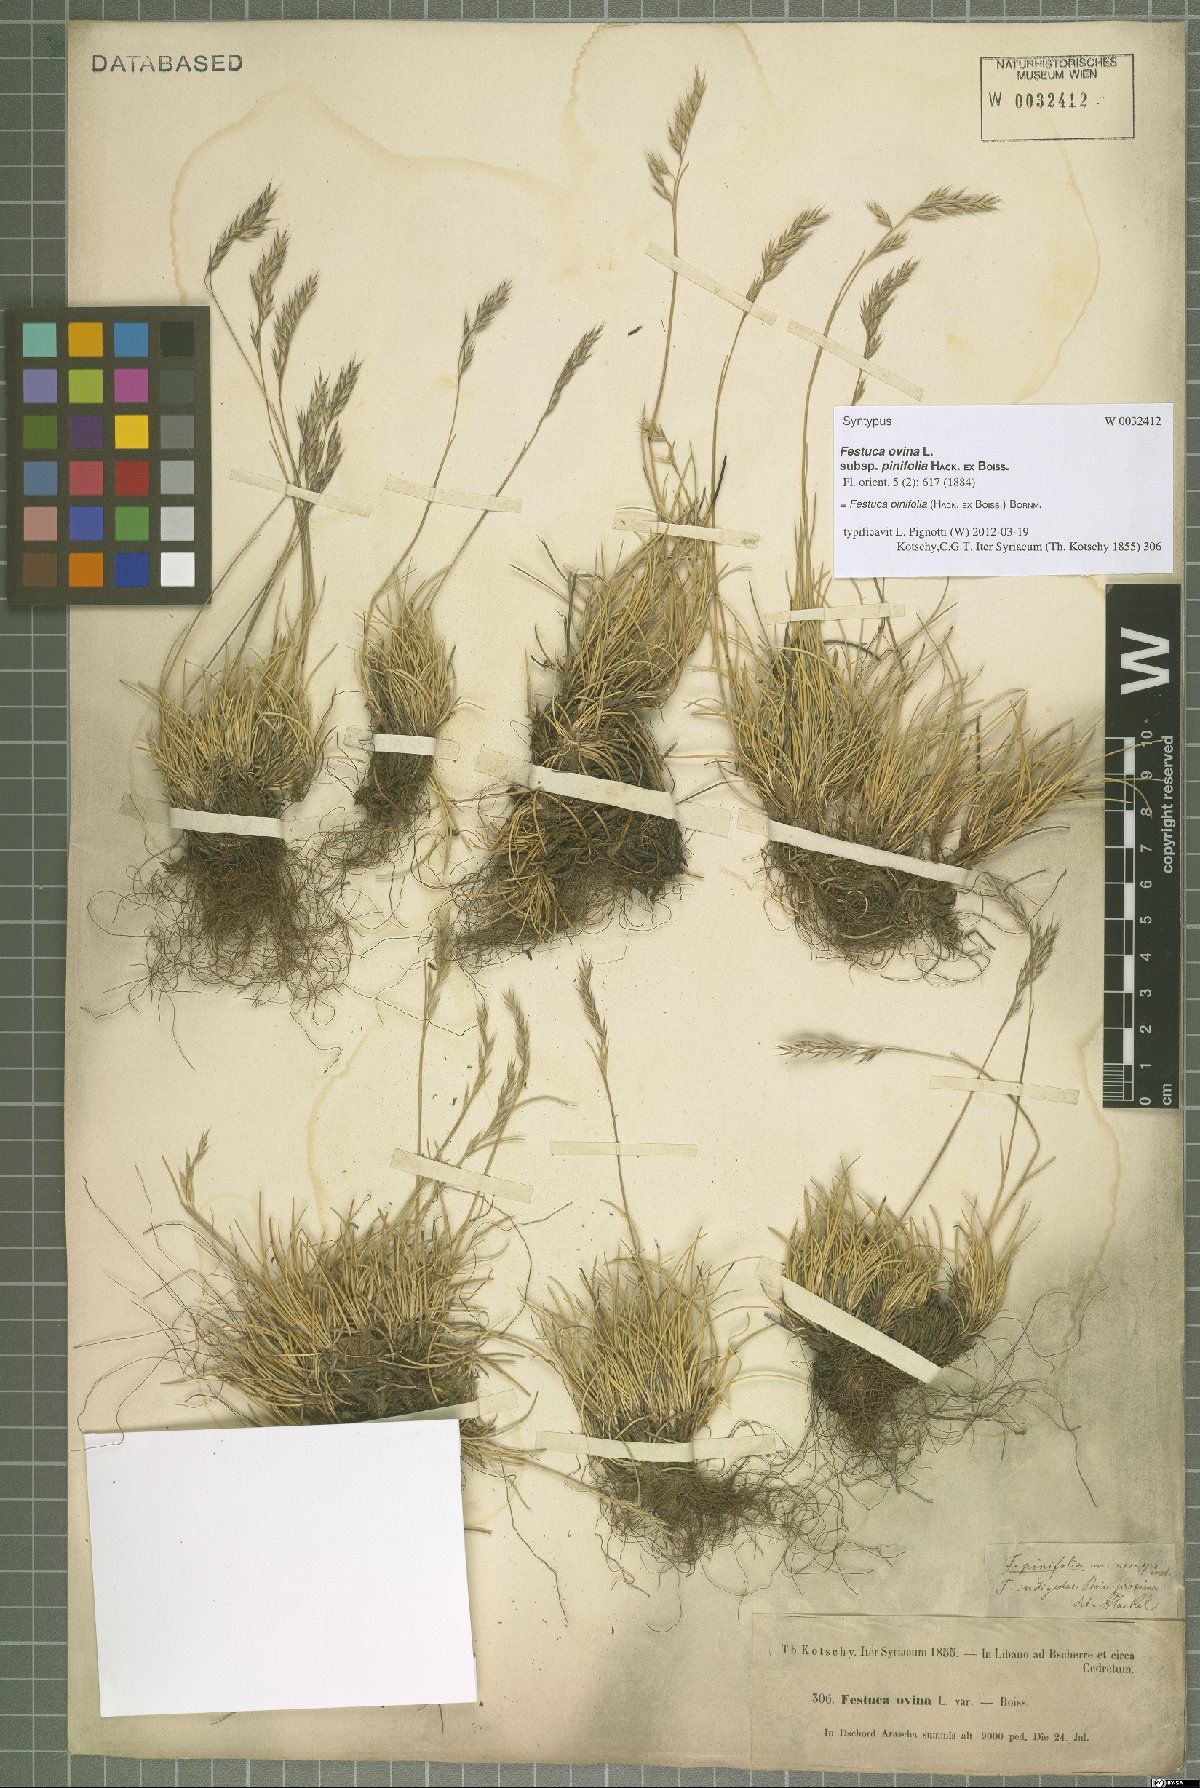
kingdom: Plantae
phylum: Tracheophyta
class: Liliopsida
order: Poales
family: Poaceae
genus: Festuca
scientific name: Festuca pinifolia
